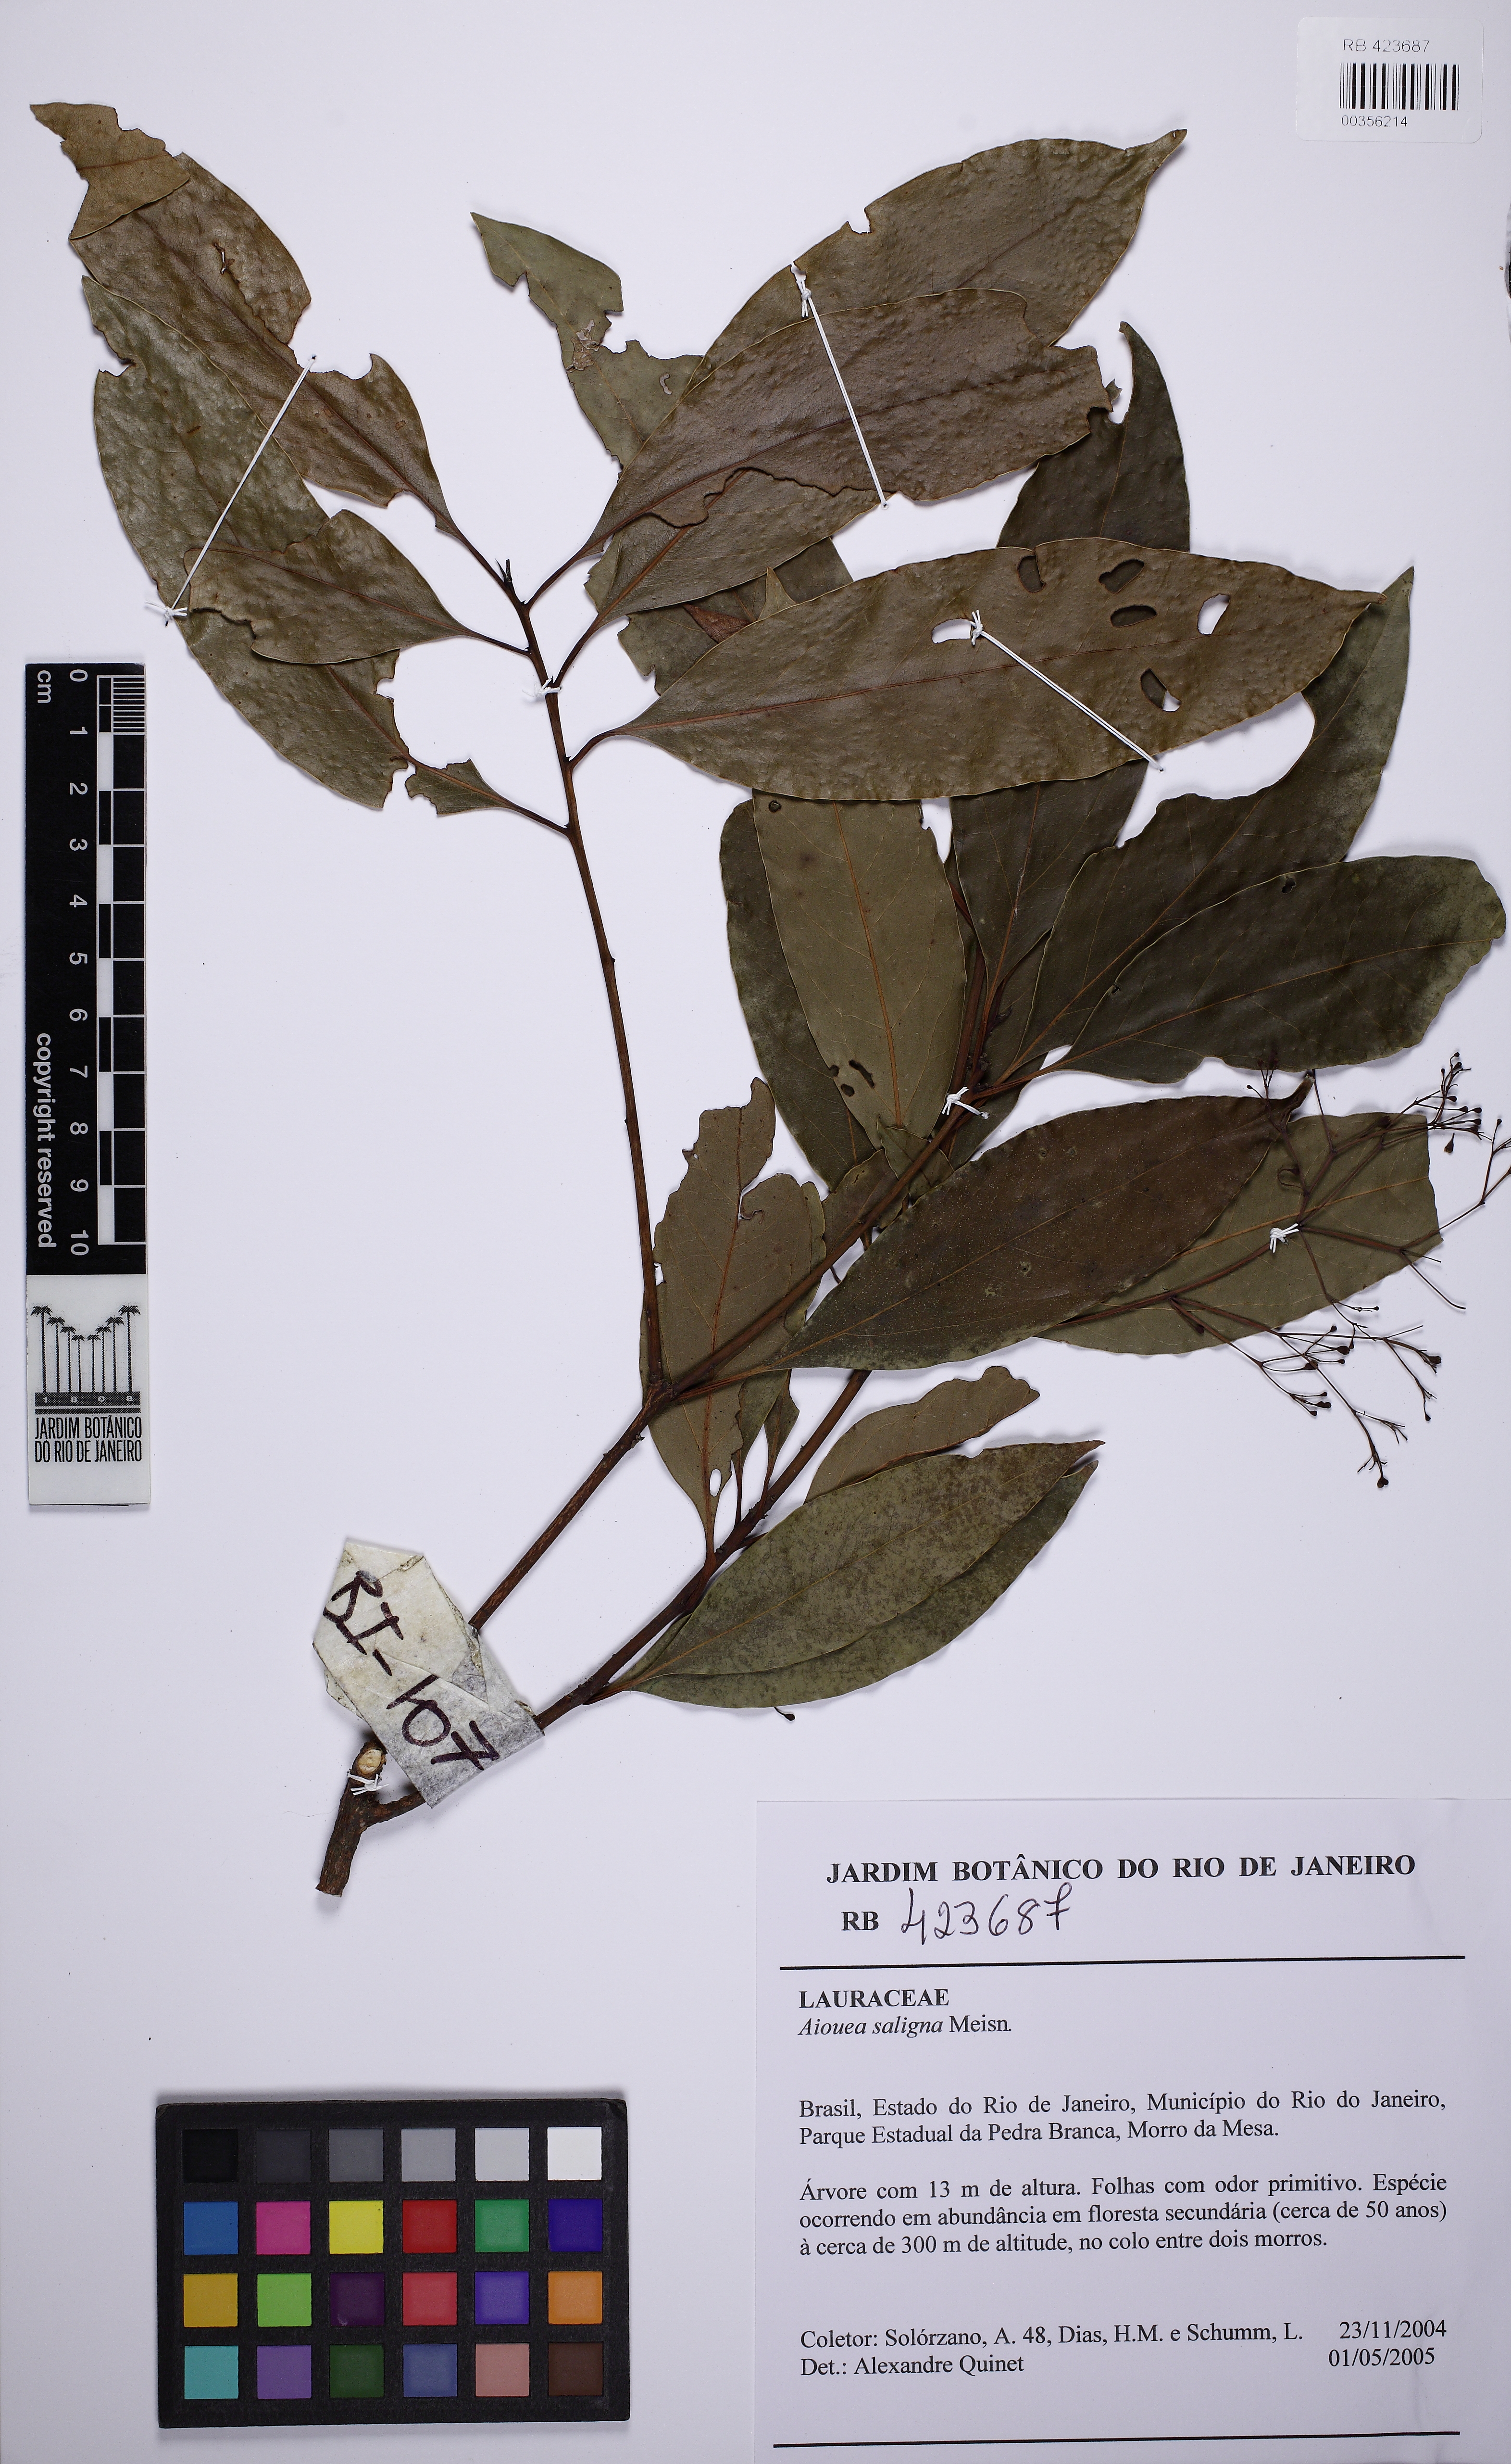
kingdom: Plantae
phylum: Tracheophyta
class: Magnoliopsida
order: Laurales
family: Lauraceae
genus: Aiouea
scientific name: Aiouea saligna
